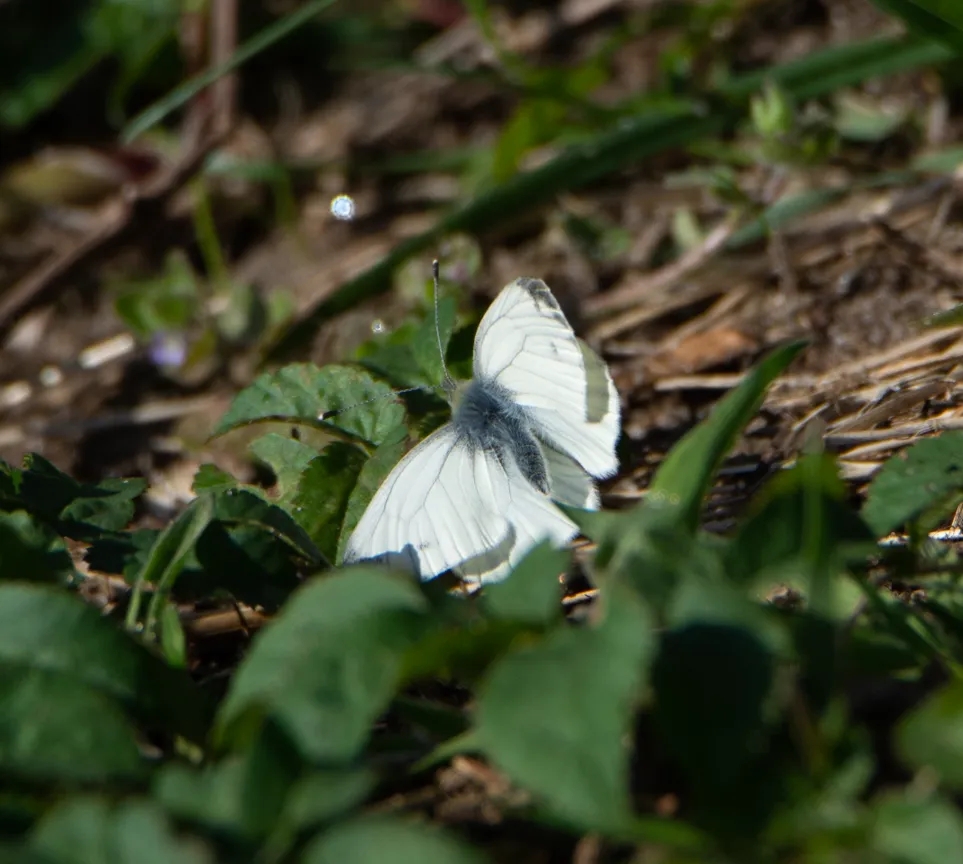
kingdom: Animalia
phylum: Arthropoda
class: Insecta
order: Lepidoptera
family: Pieridae
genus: Pieris
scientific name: Pieris napi
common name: Grønåret kålsommerfugl
